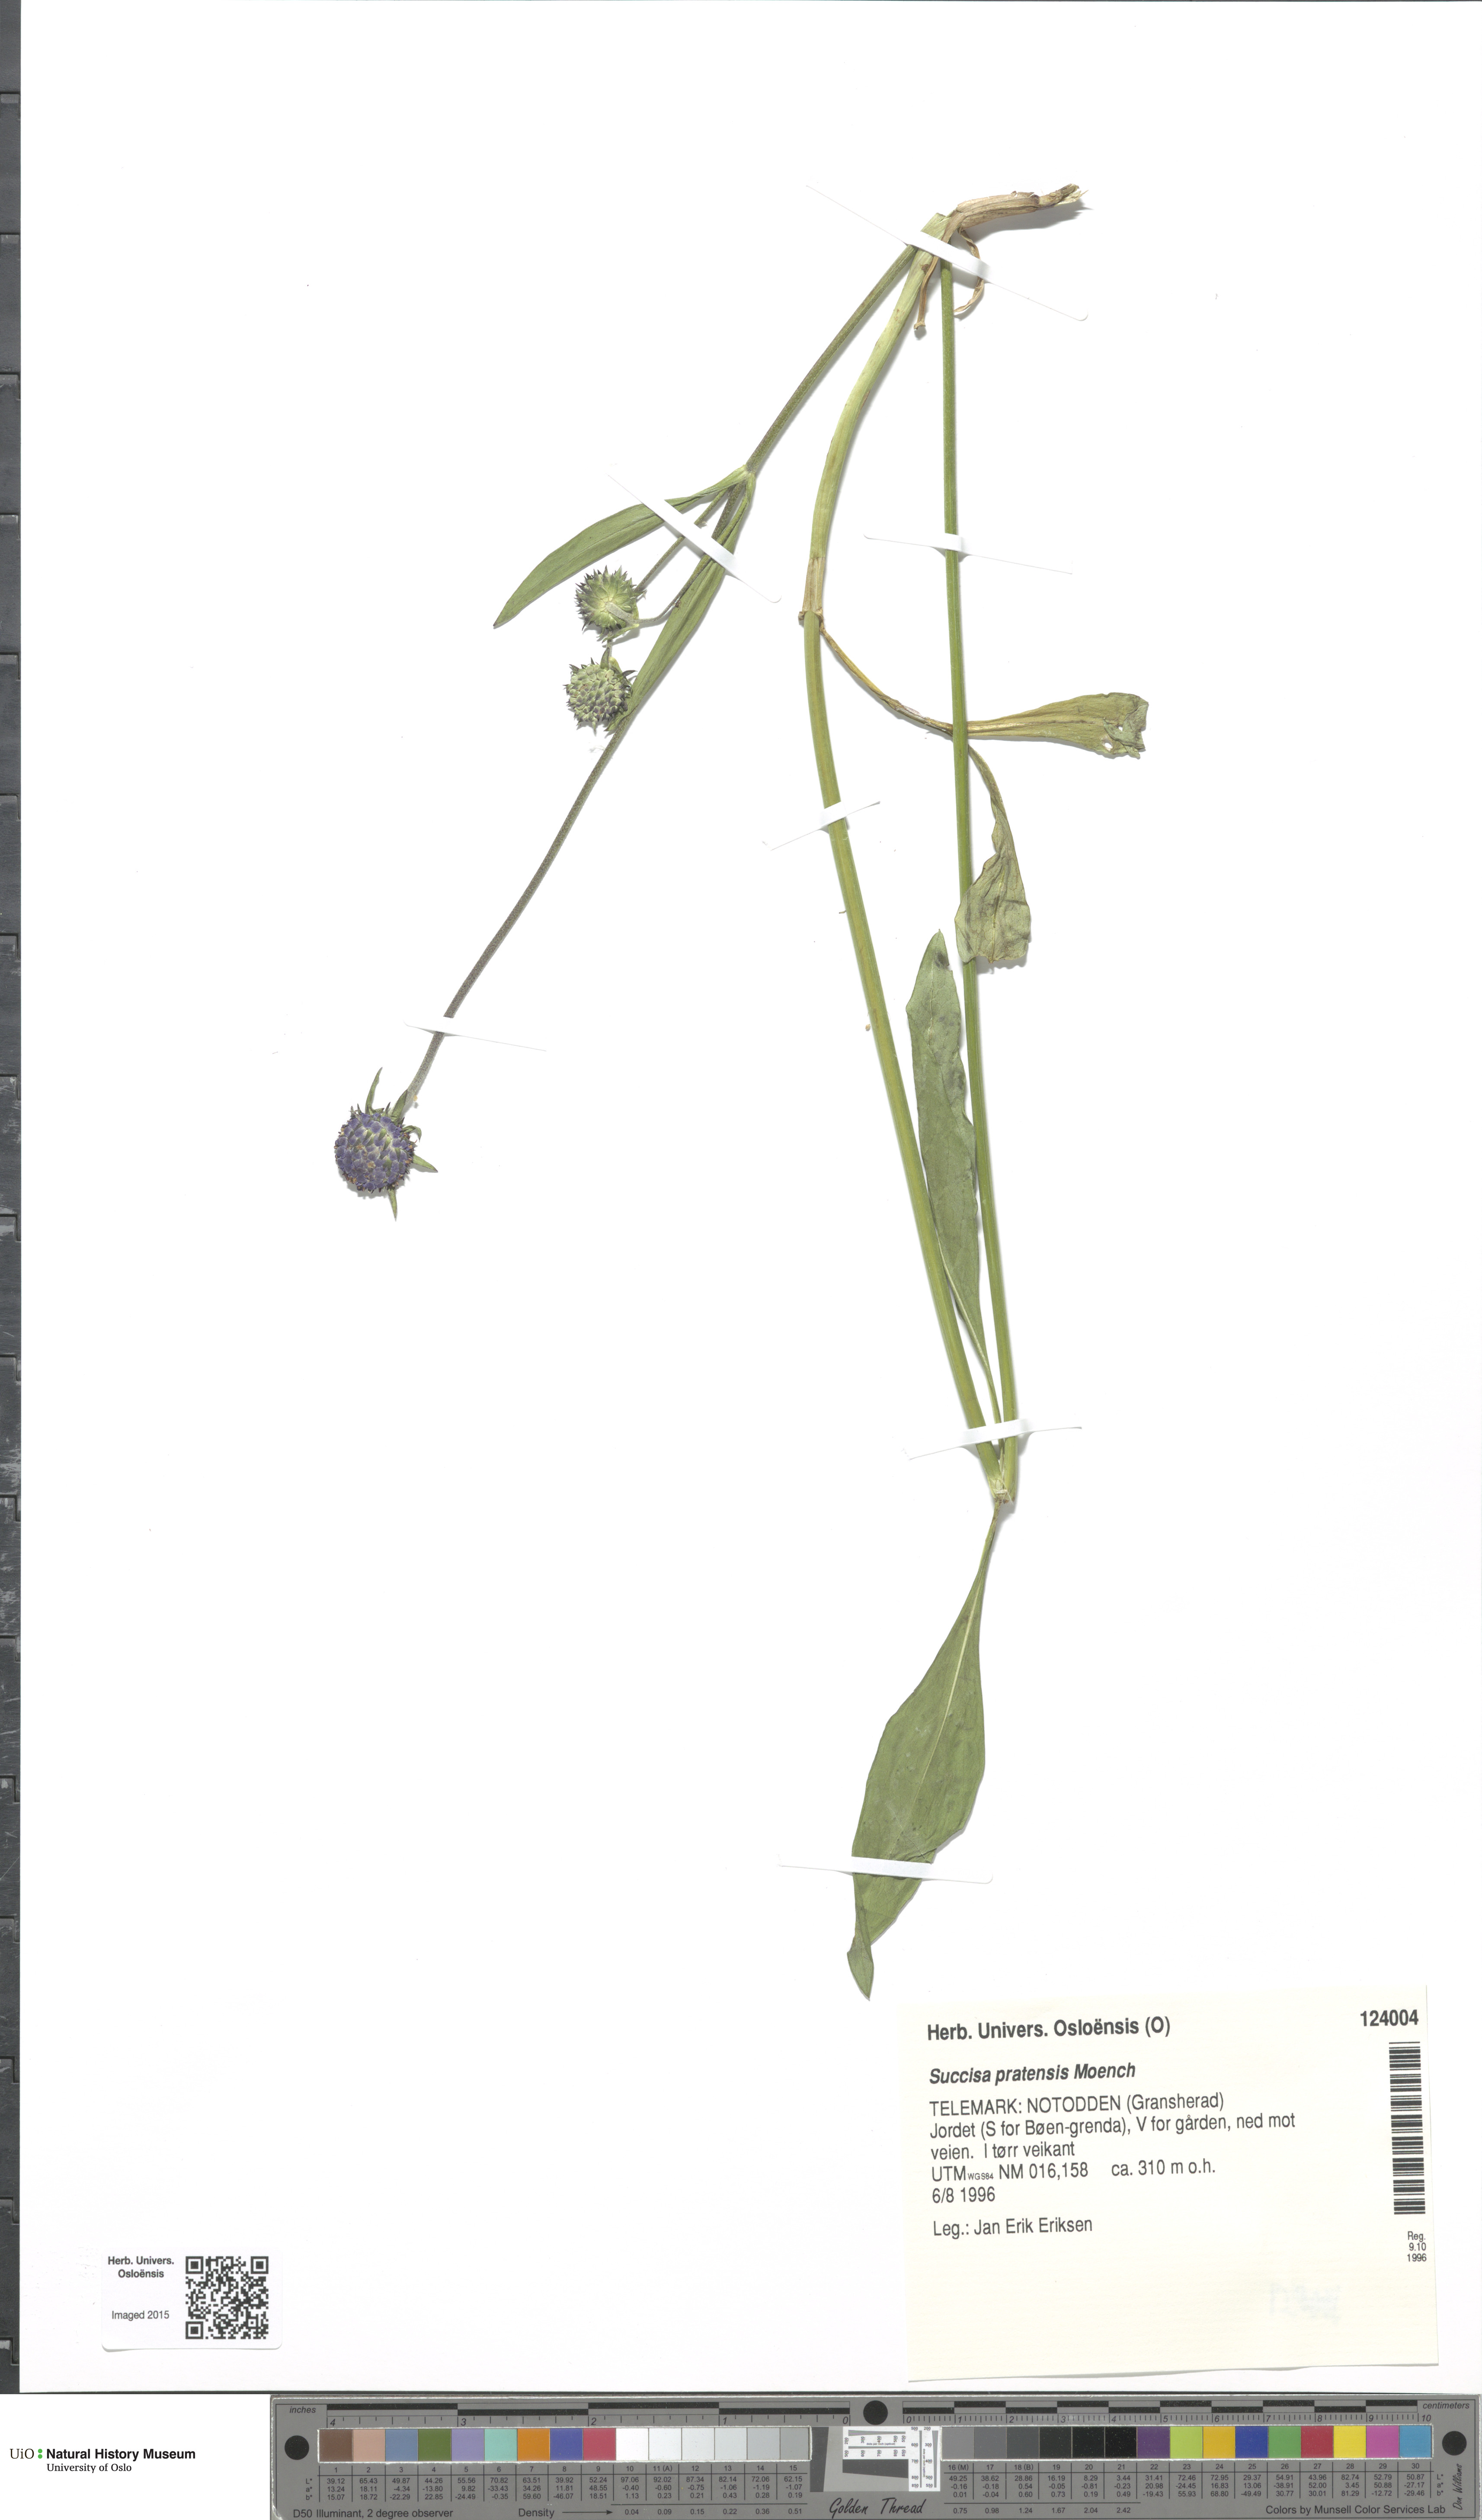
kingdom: Plantae
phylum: Tracheophyta
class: Magnoliopsida
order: Dipsacales
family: Caprifoliaceae
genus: Succisa
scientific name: Succisa pratensis
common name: Devil's-bit
